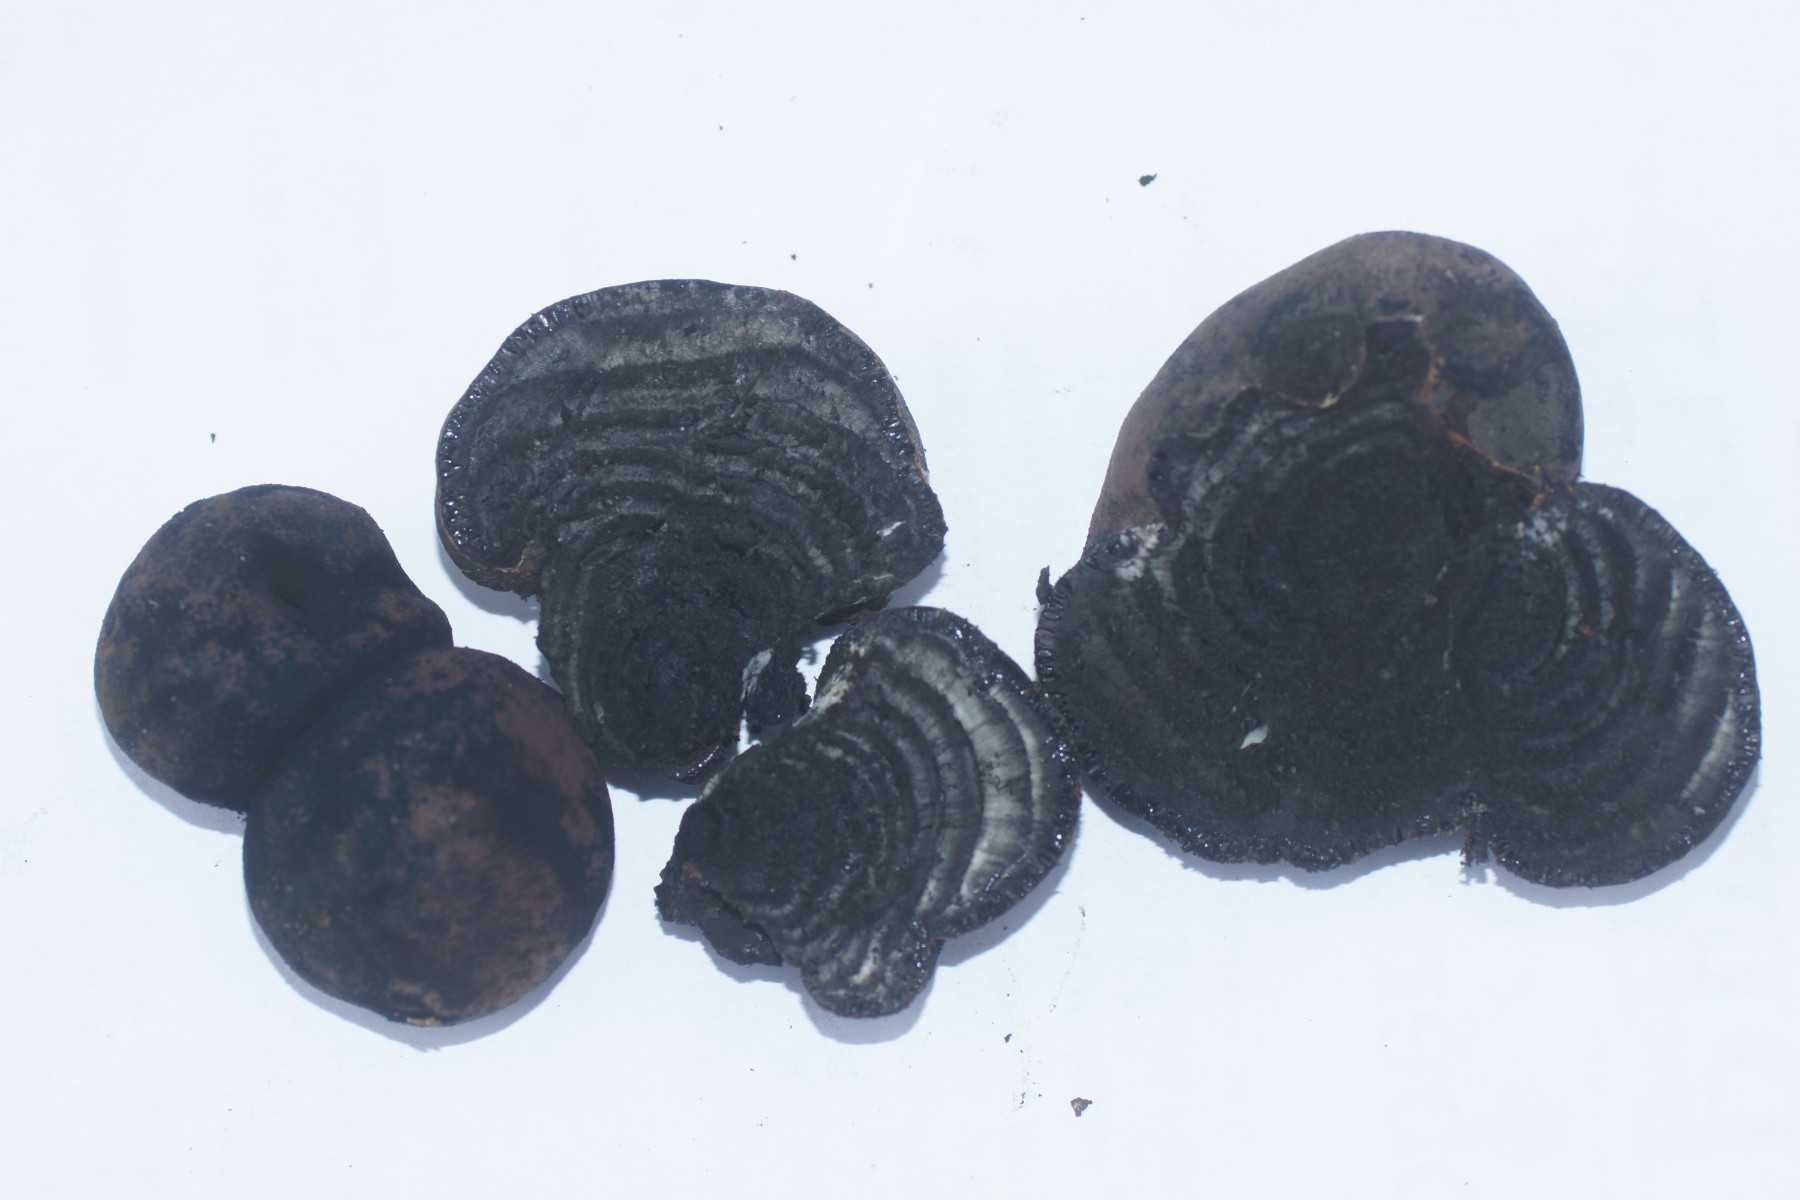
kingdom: Fungi
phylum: Ascomycota
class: Sordariomycetes
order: Xylariales
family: Hypoxylaceae
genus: Daldinia
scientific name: Daldinia concentrica
